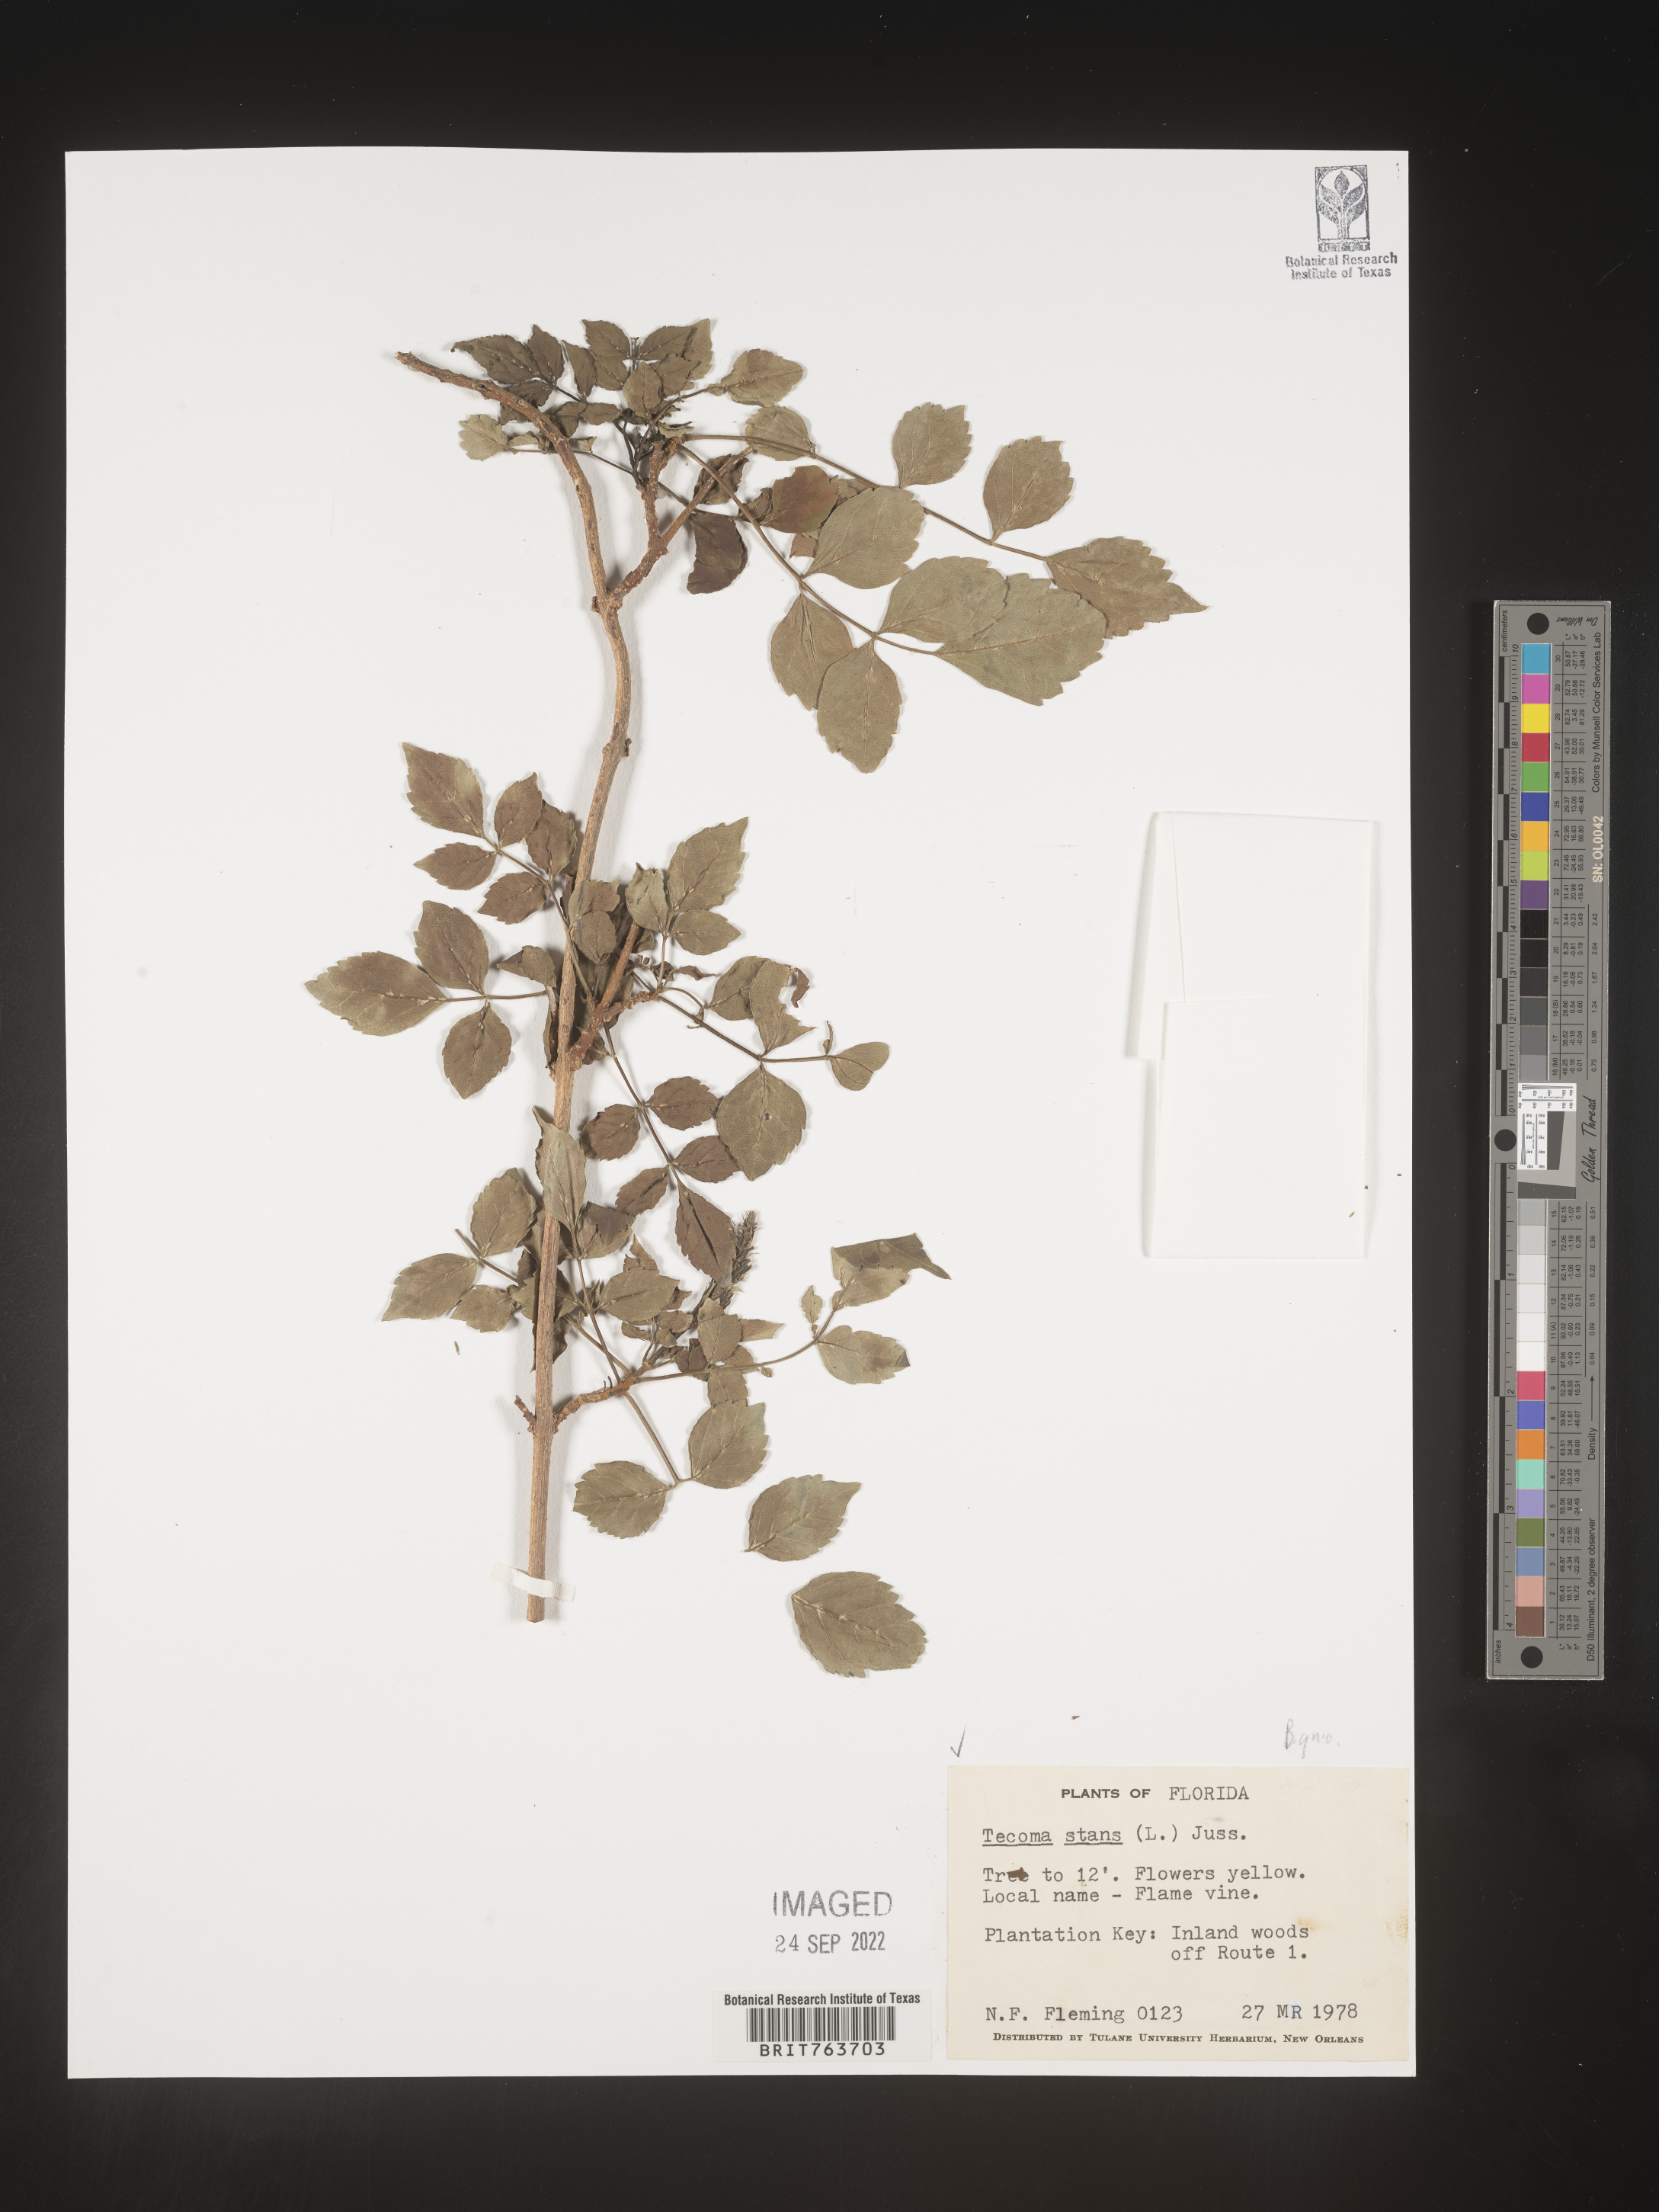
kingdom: Plantae
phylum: Tracheophyta
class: Magnoliopsida
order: Lamiales
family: Bignoniaceae
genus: Tecoma
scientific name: Tecoma
